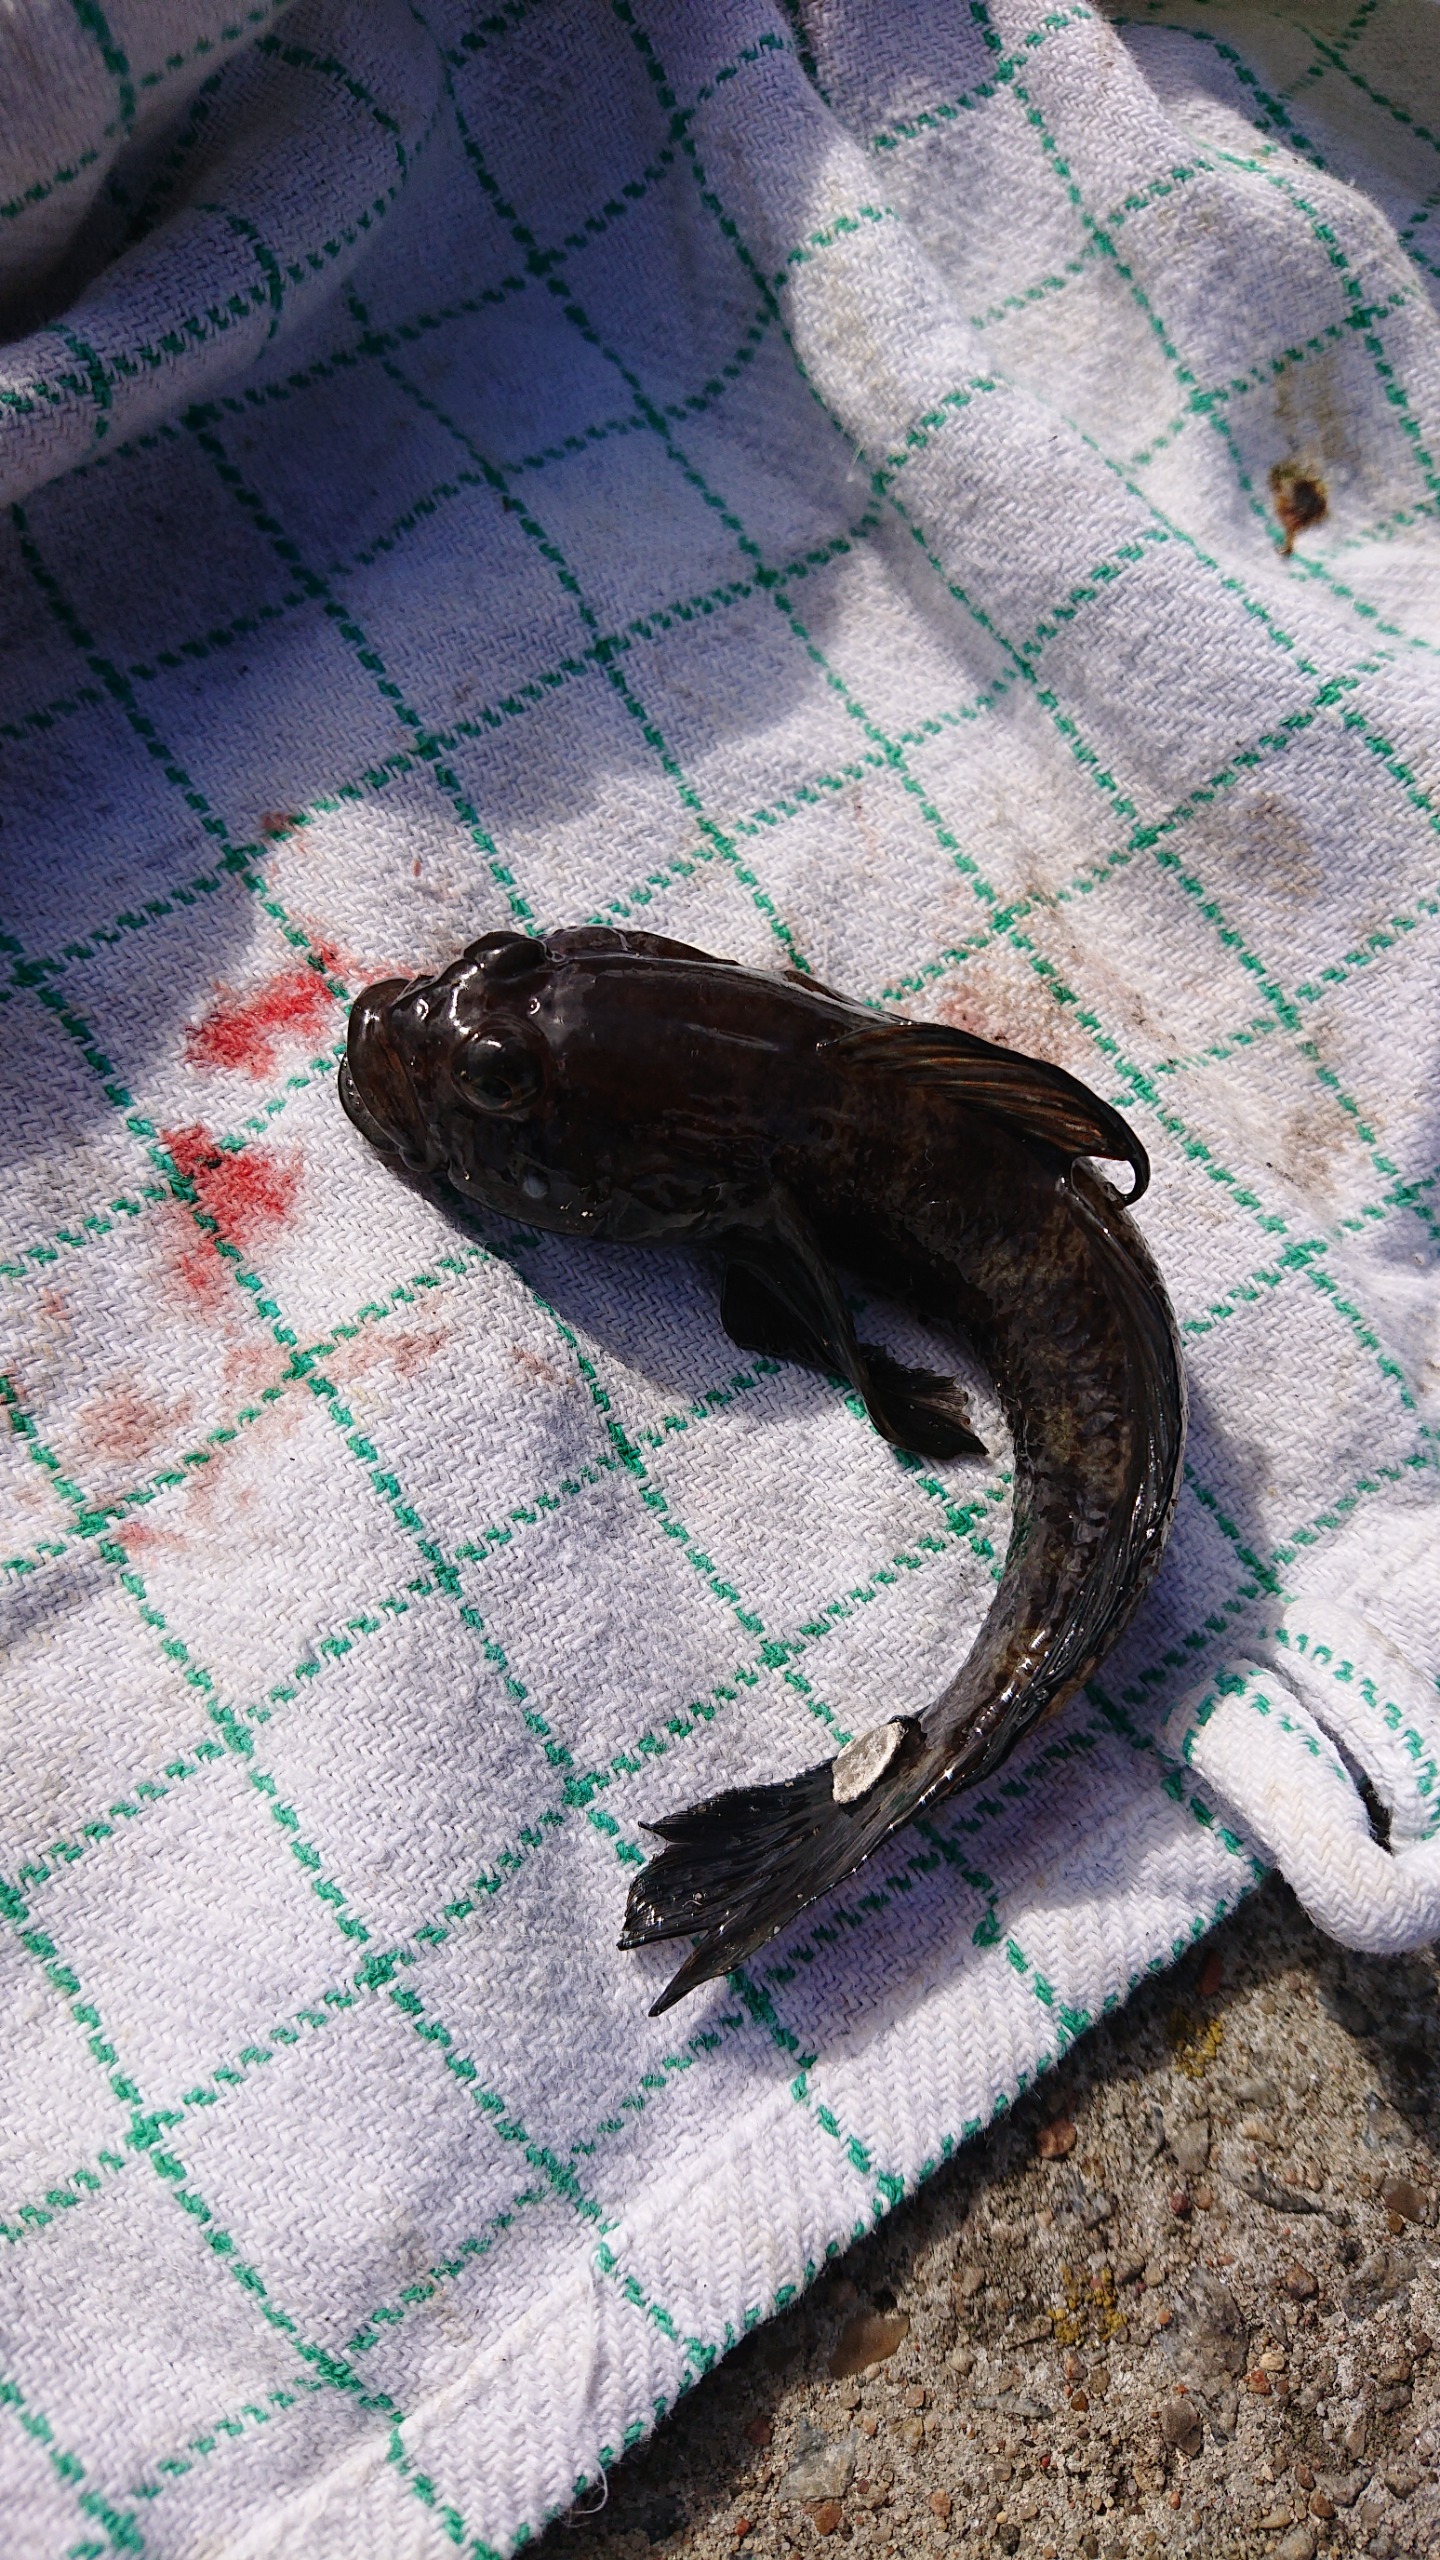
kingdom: Animalia
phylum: Chordata
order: Perciformes
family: Gobiidae
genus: Gobius
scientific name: Gobius niger
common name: Sortkutling
